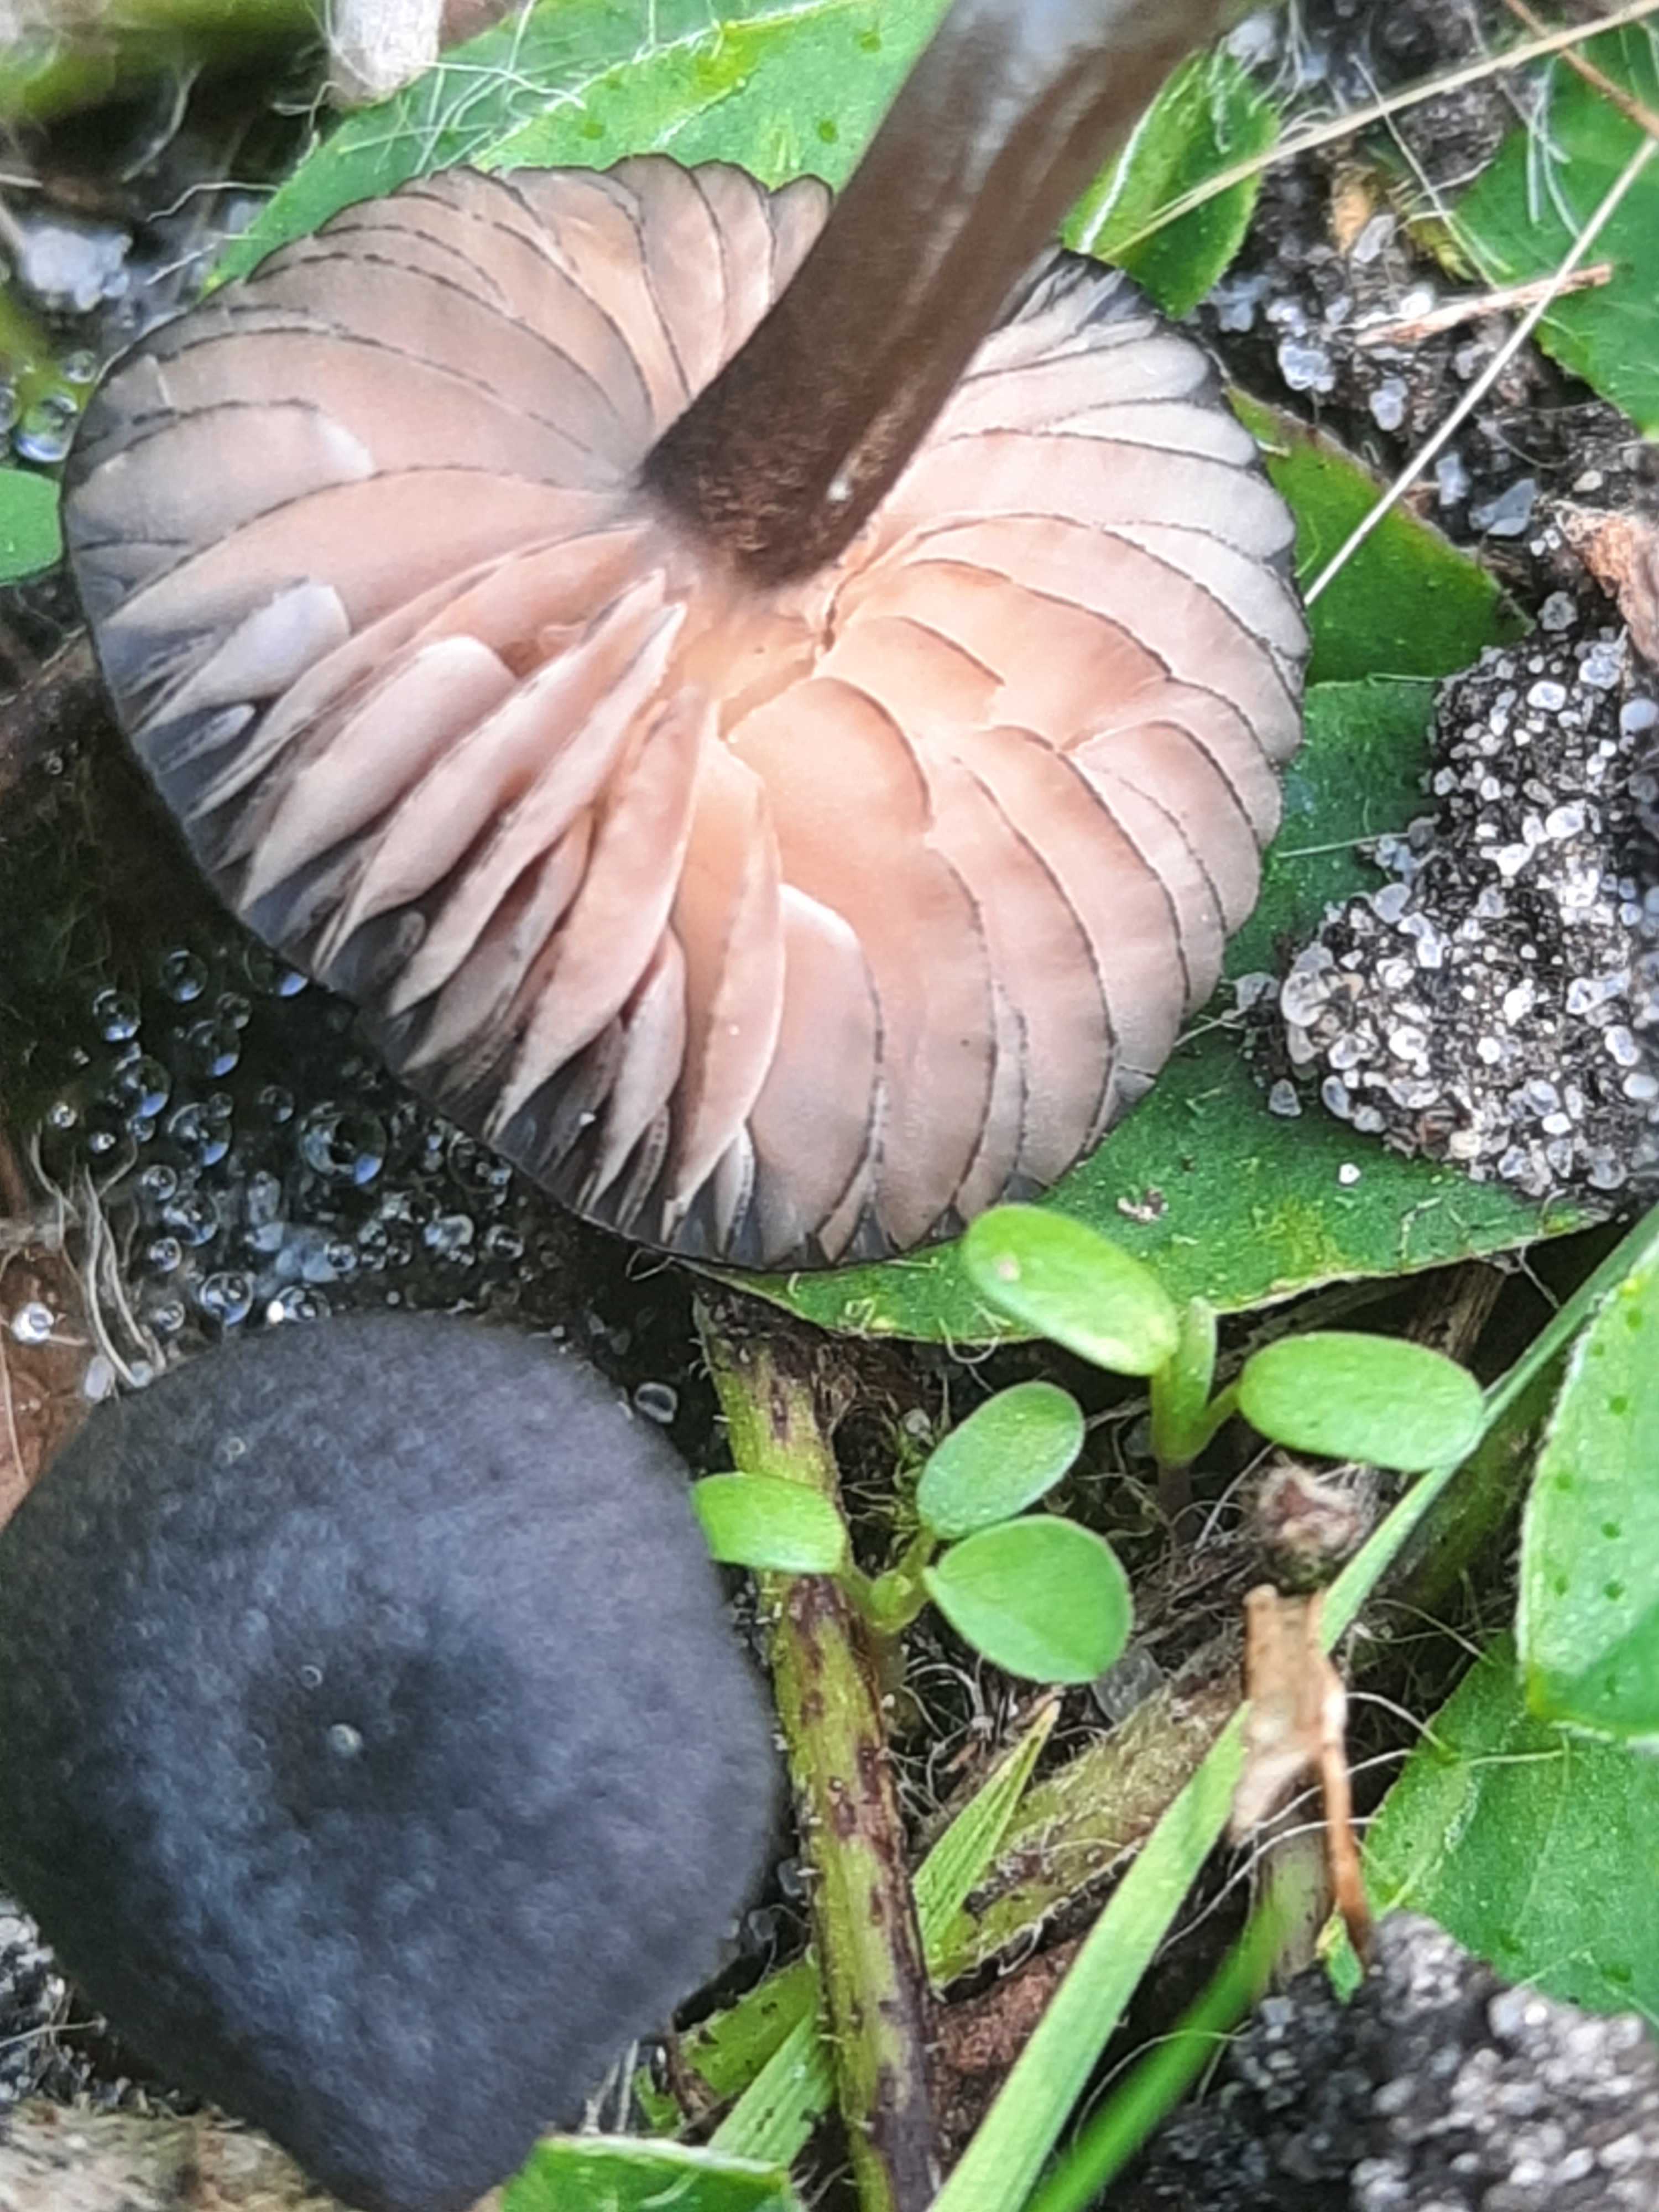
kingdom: Fungi
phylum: Basidiomycota
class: Agaricomycetes
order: Agaricales
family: Entolomataceae
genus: Entoloma
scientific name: Entoloma
